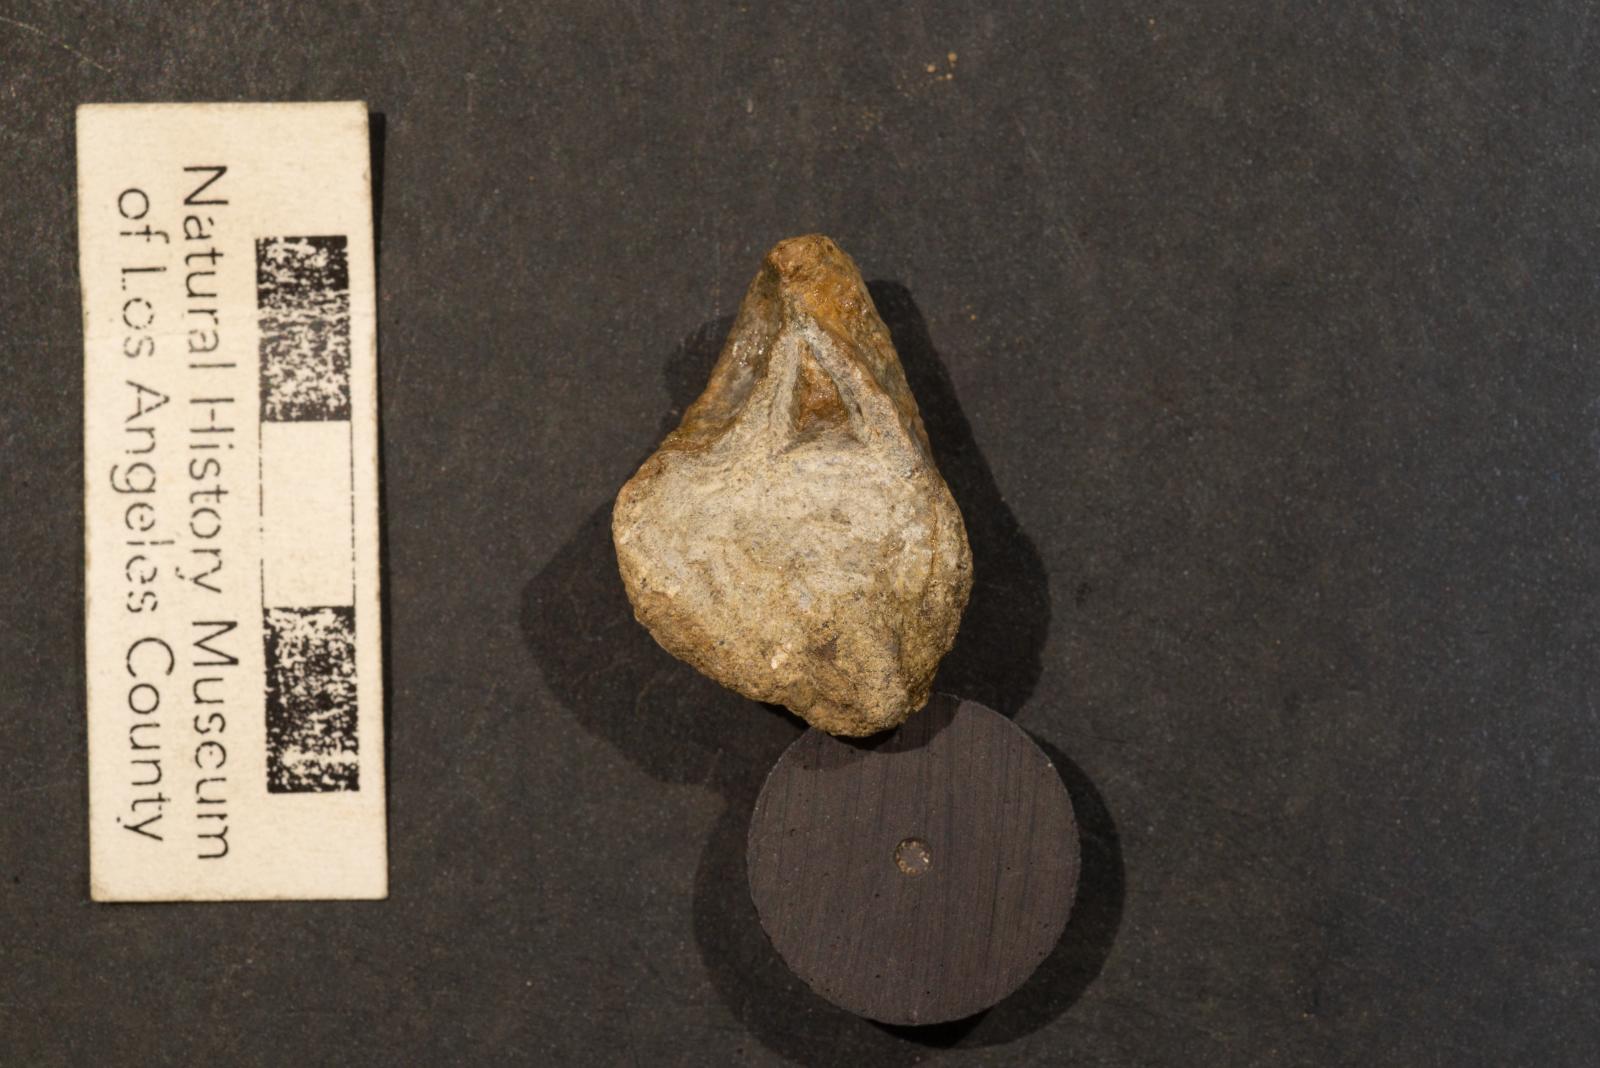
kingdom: Animalia
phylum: Mollusca
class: Bivalvia
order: Carditida
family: Astartidae
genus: Opis
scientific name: Opis popenoei
